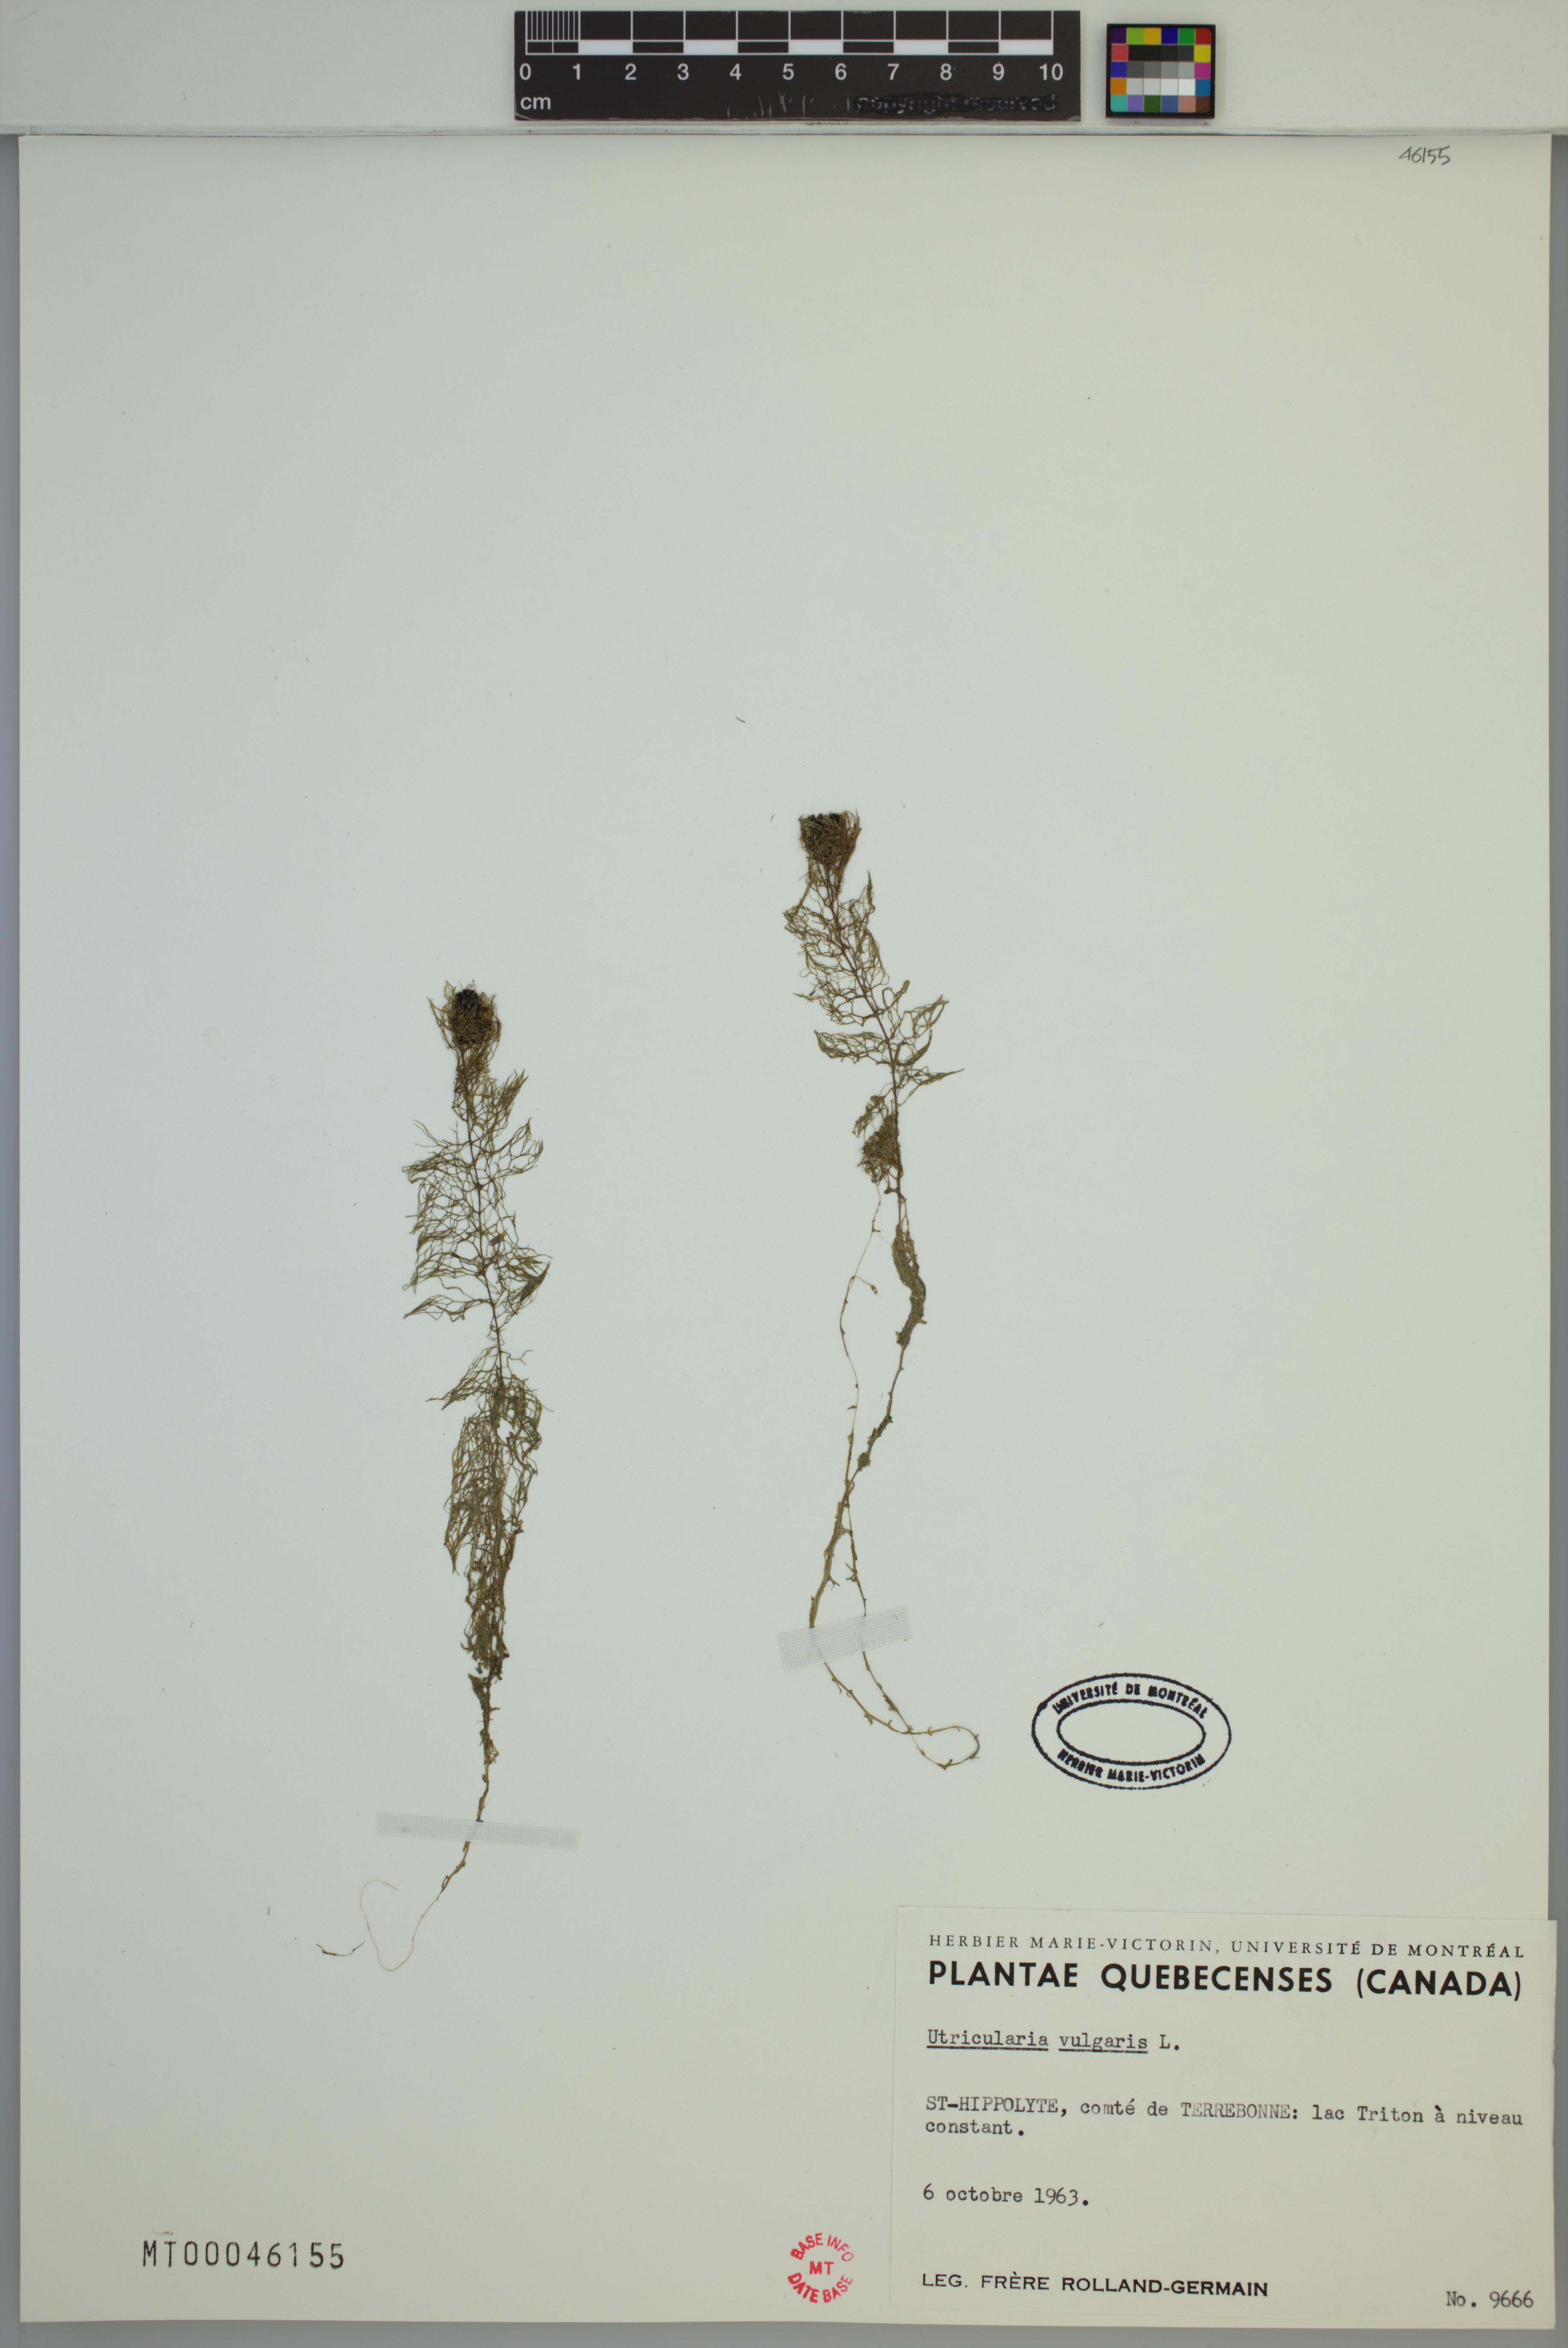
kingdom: Plantae
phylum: Tracheophyta
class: Magnoliopsida
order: Lamiales
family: Lentibulariaceae
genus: Utricularia
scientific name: Utricularia macrorhiza
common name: Common bladderwort
